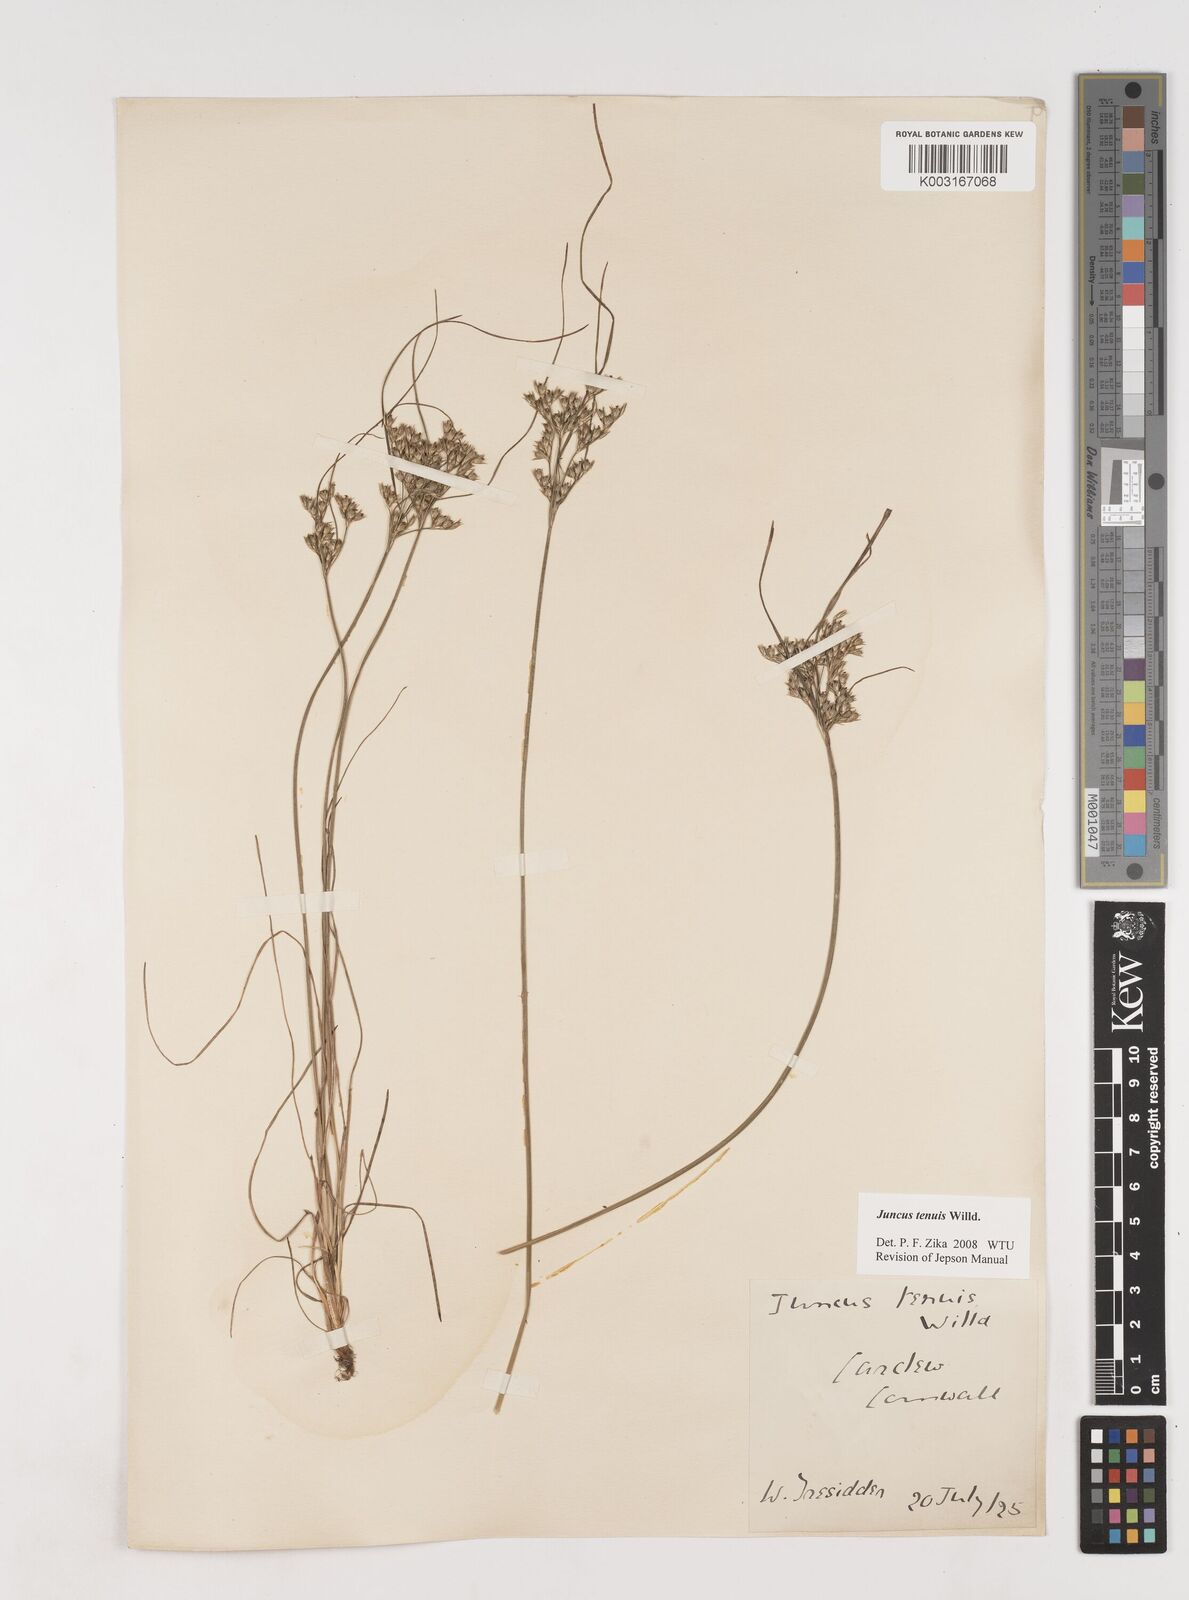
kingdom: Plantae
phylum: Tracheophyta
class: Liliopsida
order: Poales
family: Juncaceae
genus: Juncus
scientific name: Juncus tenuis
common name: Slender rush
